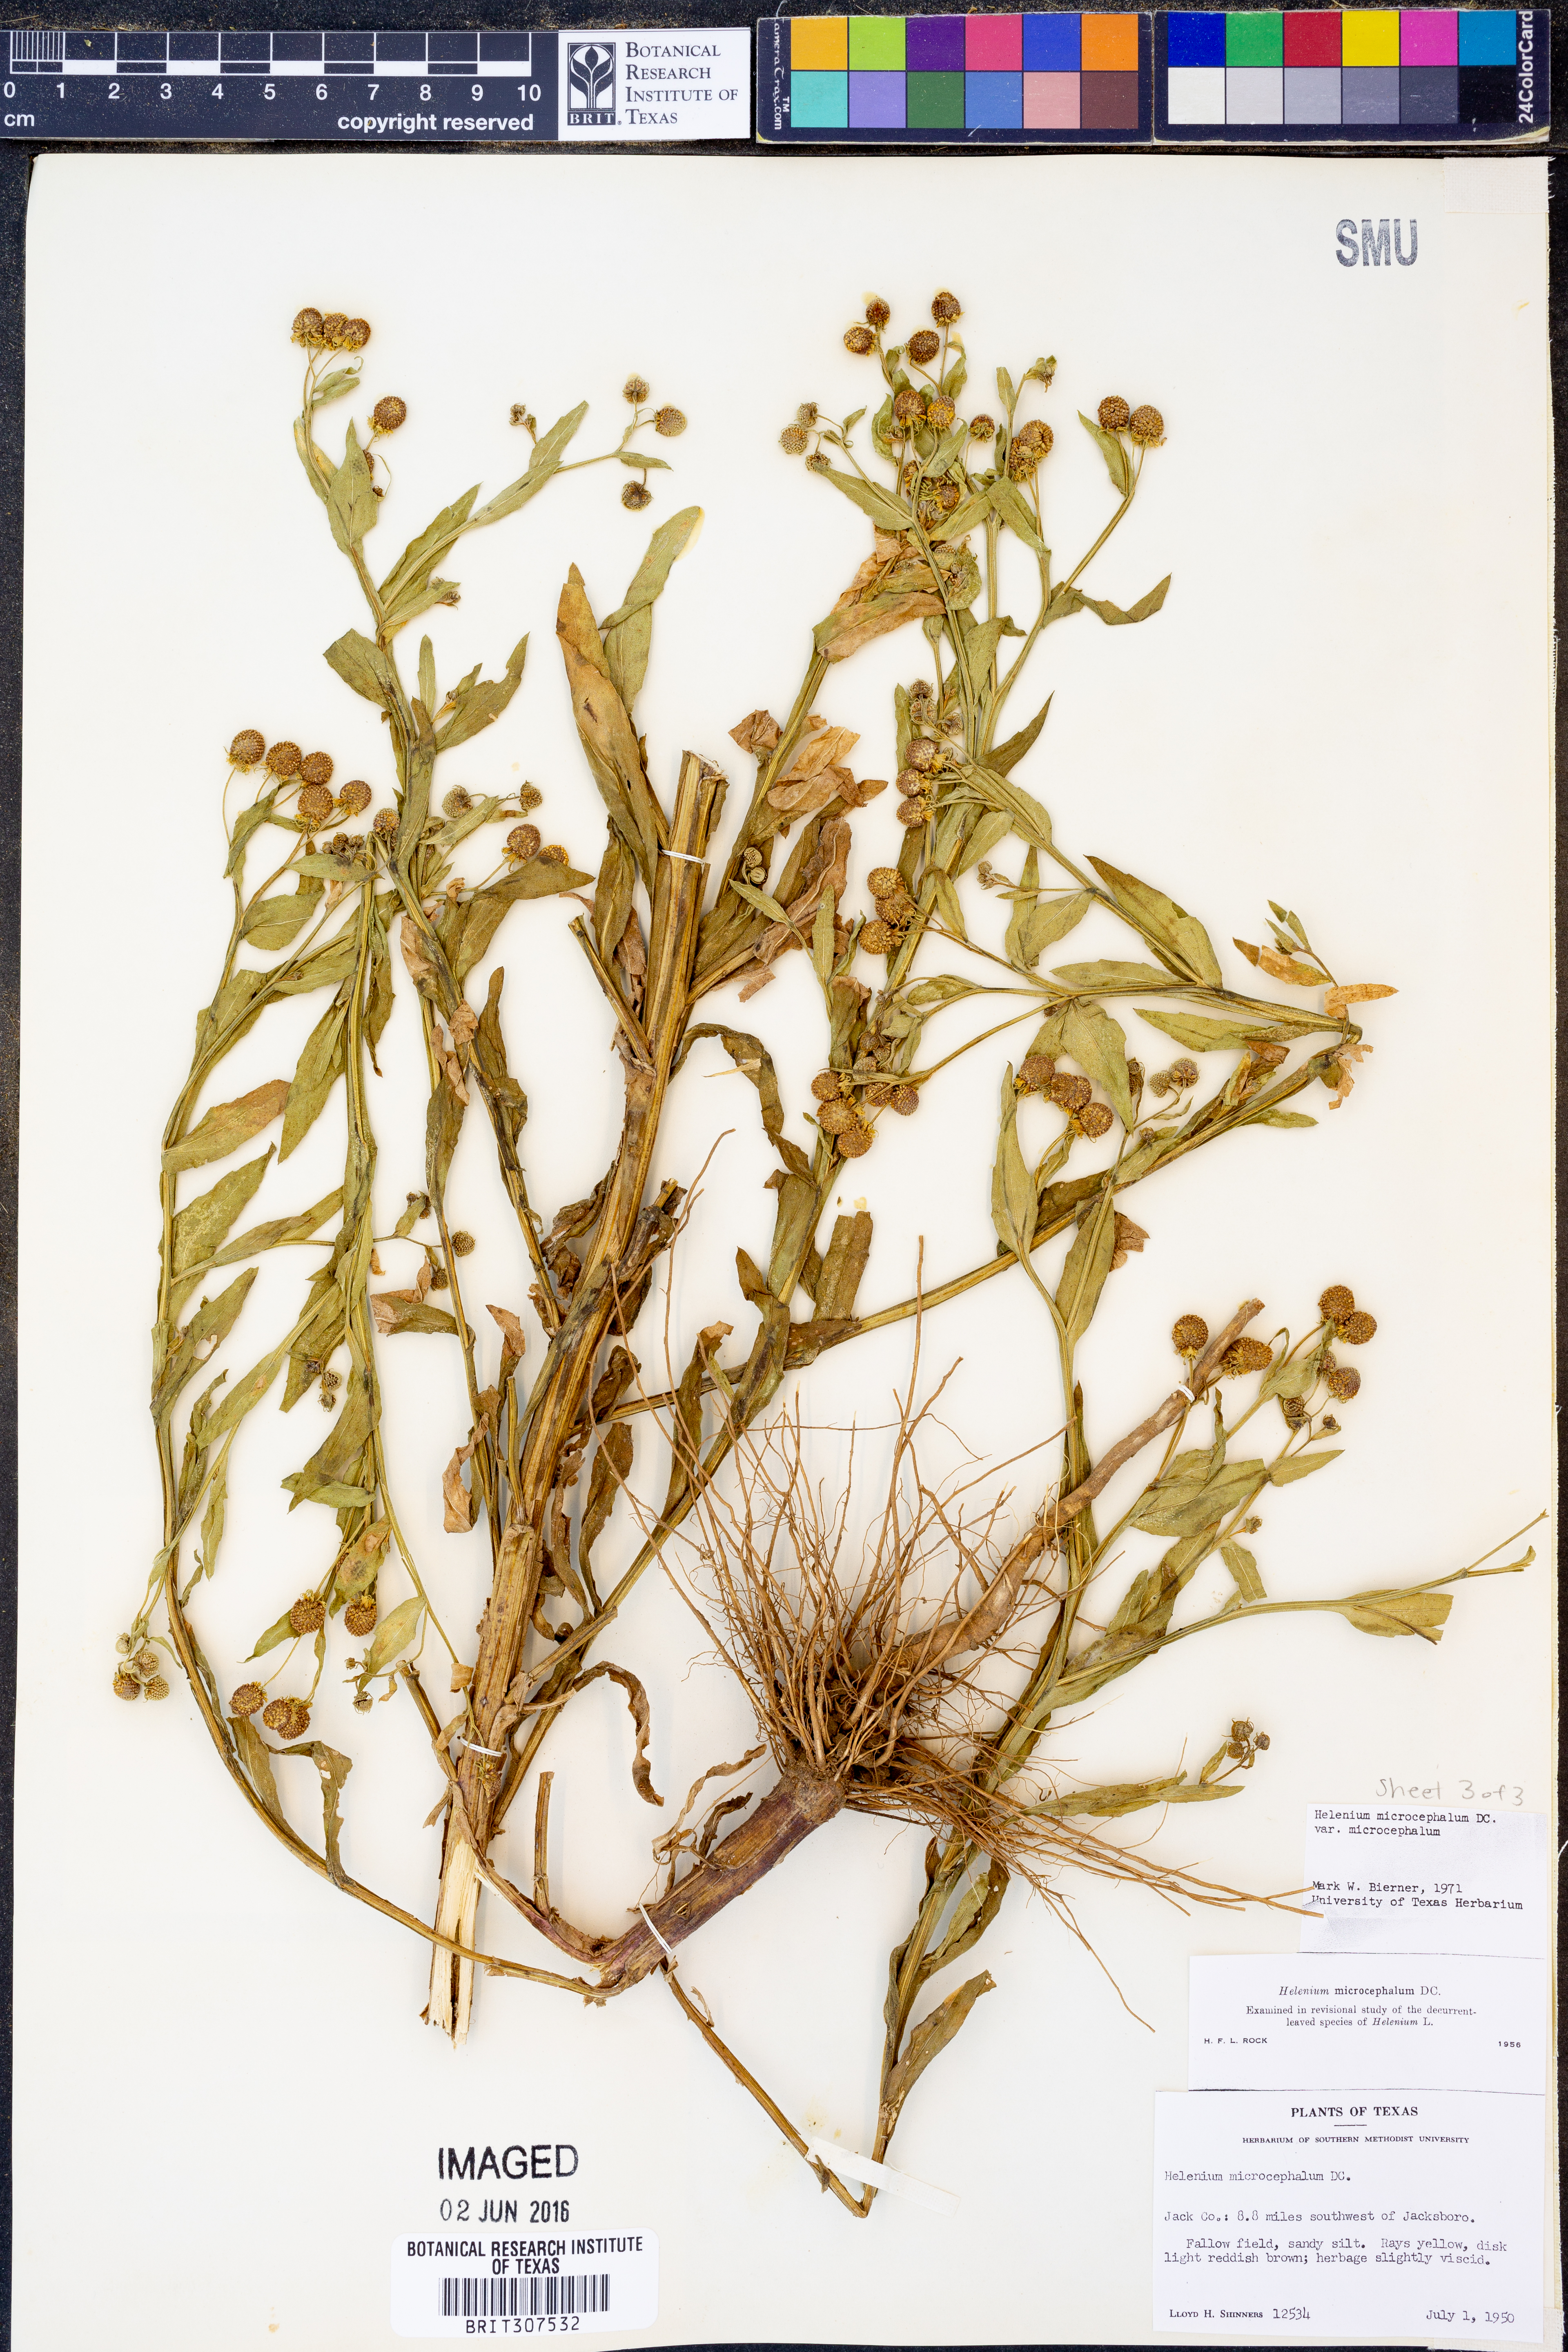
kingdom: Plantae
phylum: Tracheophyta
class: Magnoliopsida
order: Asterales
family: Asteraceae
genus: Helenium
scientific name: Helenium microcephalum
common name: Smallhead sneezeweed
